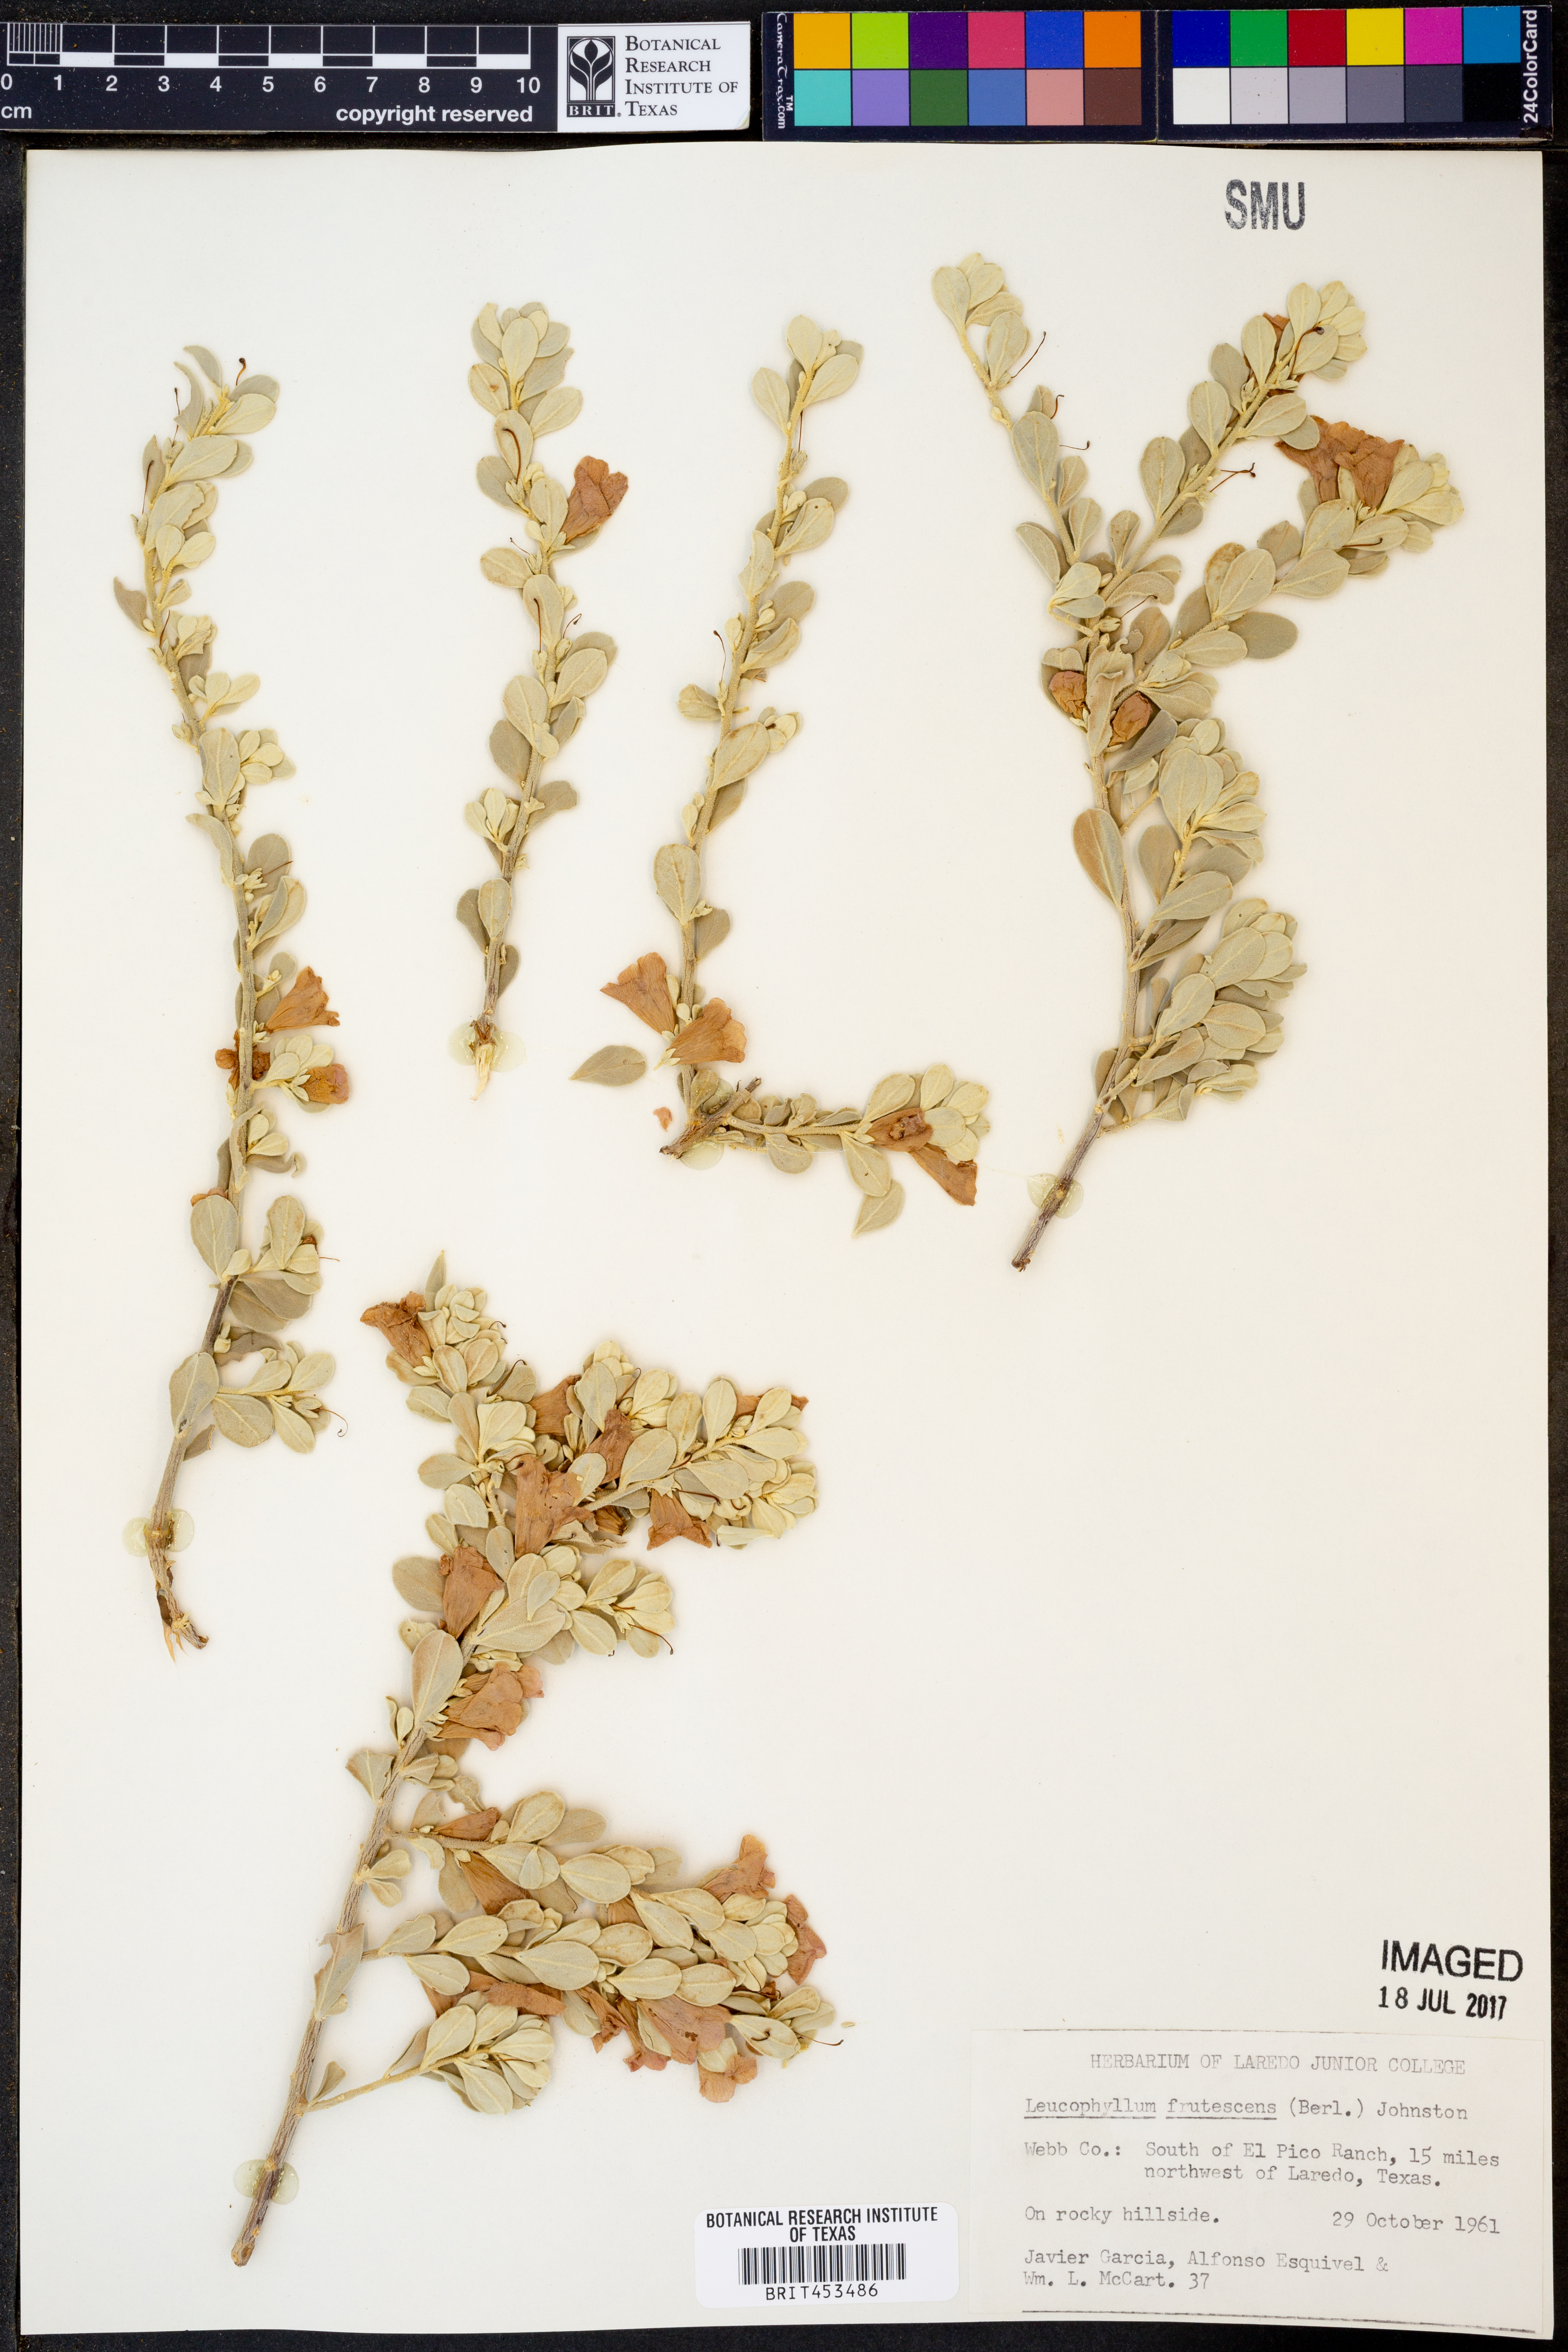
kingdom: Plantae
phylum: Tracheophyta
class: Magnoliopsida
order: Lamiales
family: Scrophulariaceae
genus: Leucophyllum
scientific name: Leucophyllum frutescens
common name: Texas silverleaf
